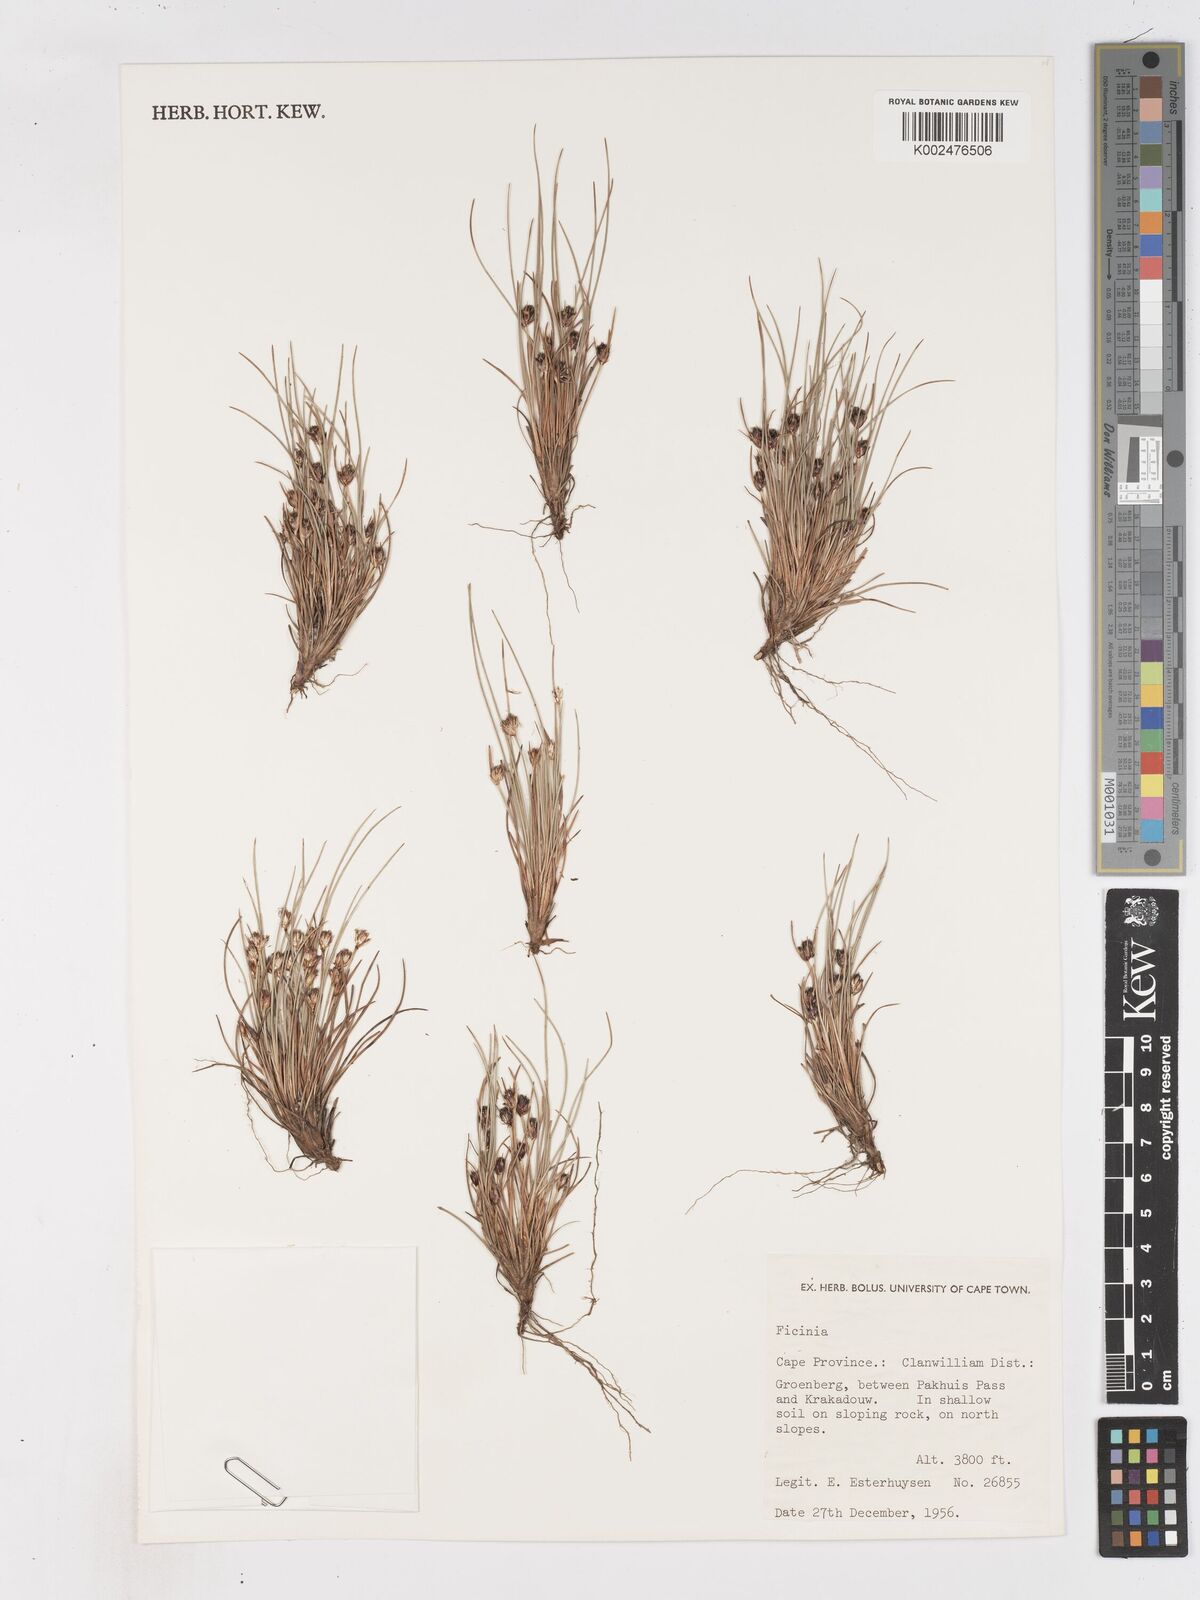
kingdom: Plantae
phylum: Tracheophyta
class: Liliopsida
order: Poales
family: Cyperaceae
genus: Ficinia
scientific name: Ficinia
